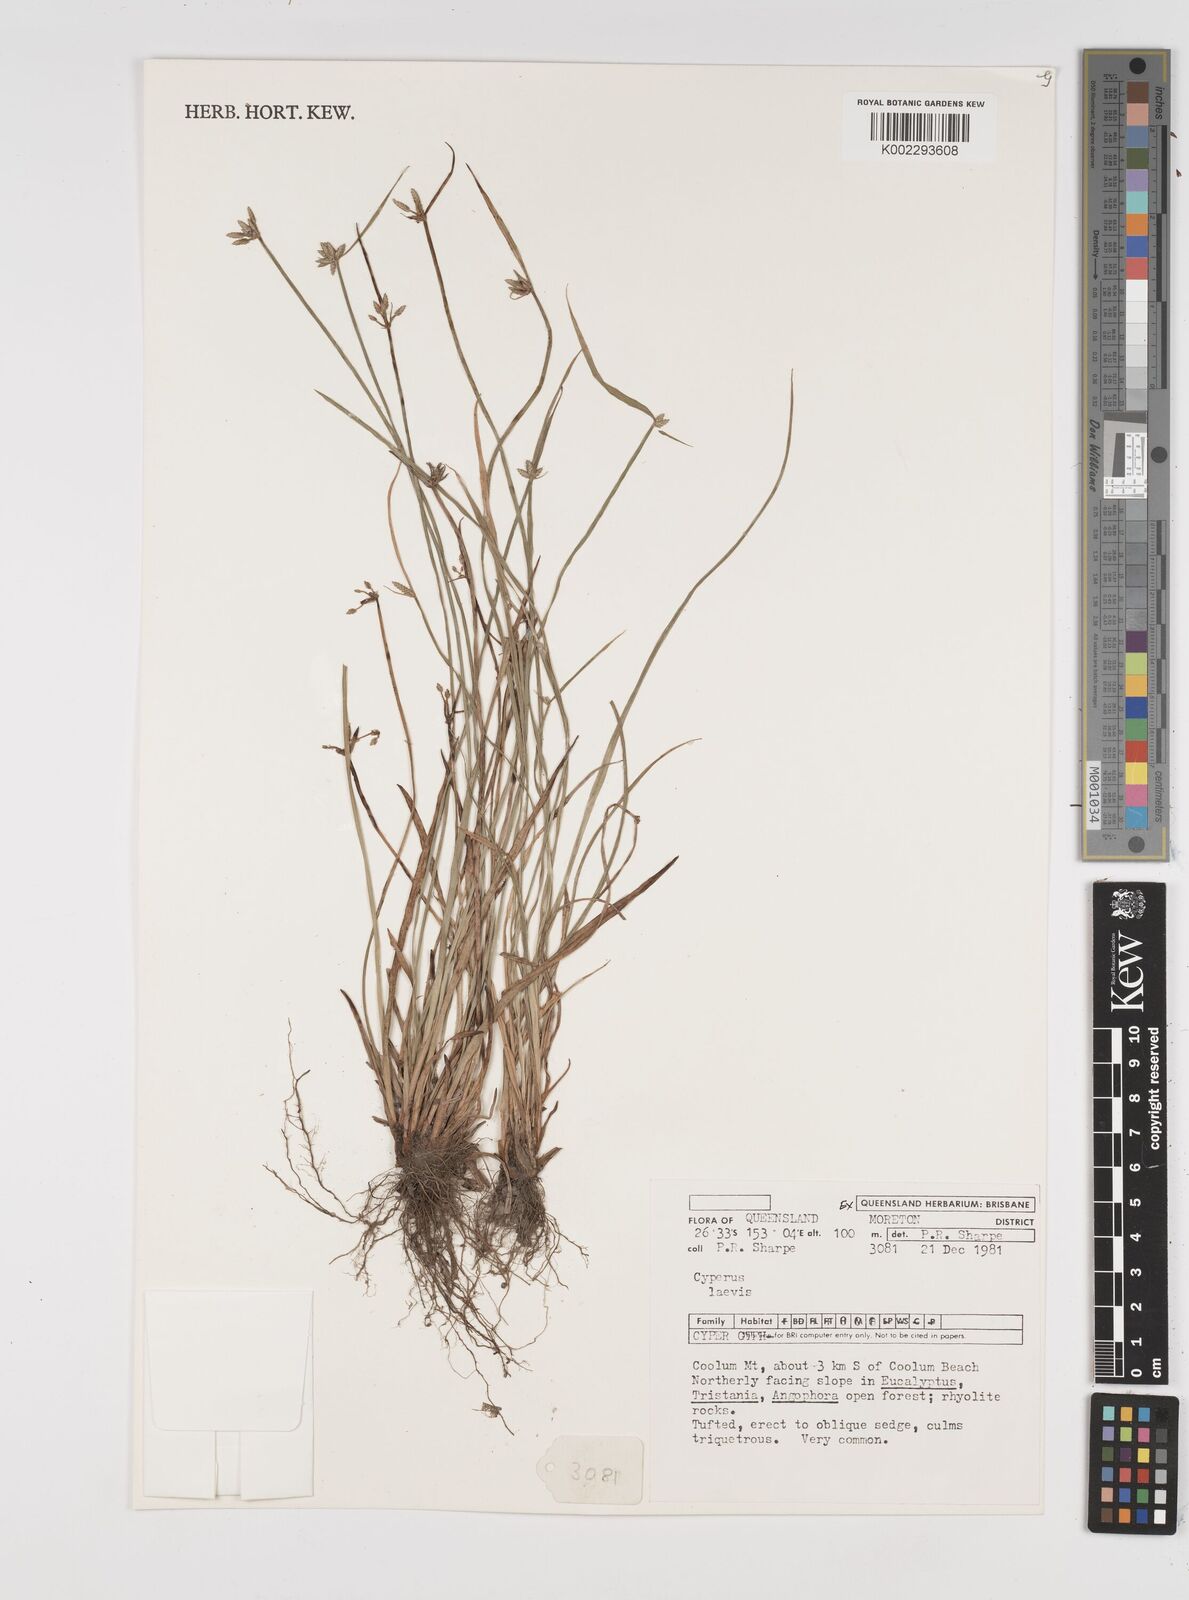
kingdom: Plantae
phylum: Tracheophyta
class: Liliopsida
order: Poales
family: Cyperaceae
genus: Cyperus
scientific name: Cyperus laevis
